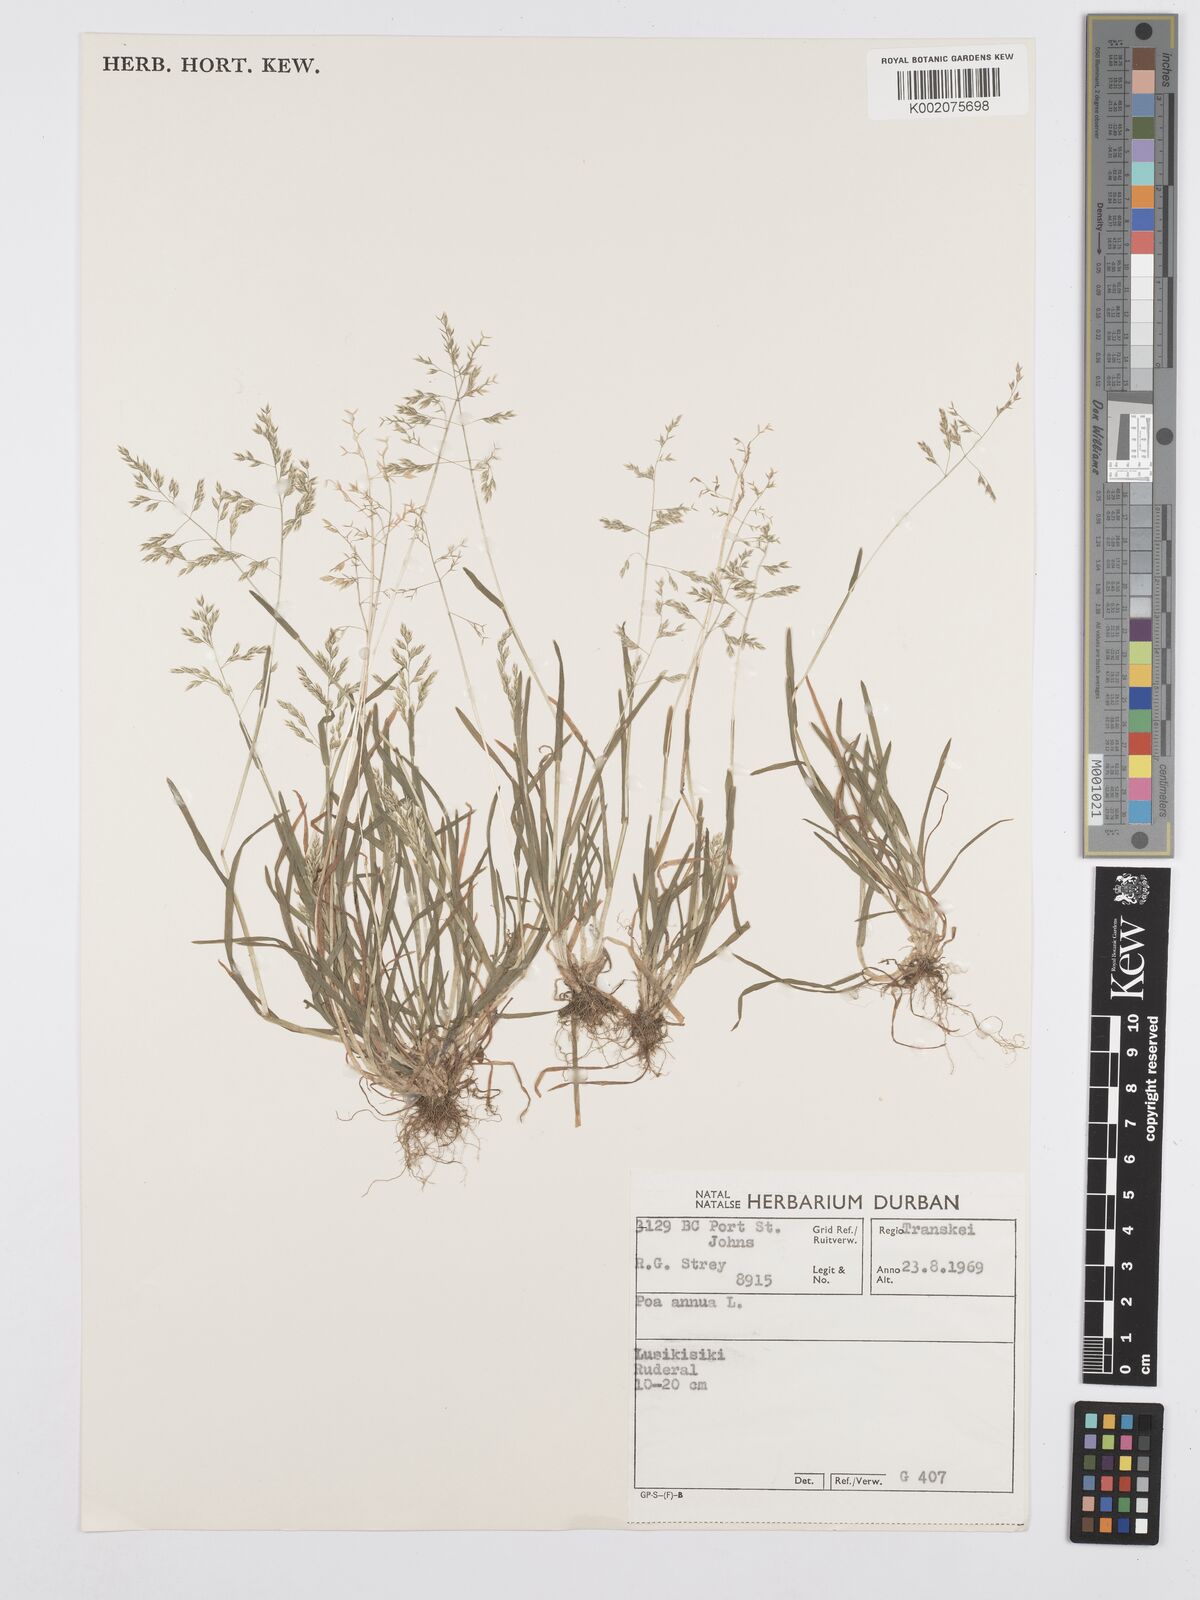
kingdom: Plantae
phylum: Tracheophyta
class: Liliopsida
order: Poales
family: Poaceae
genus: Poa
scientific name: Poa annua
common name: Annual bluegrass
